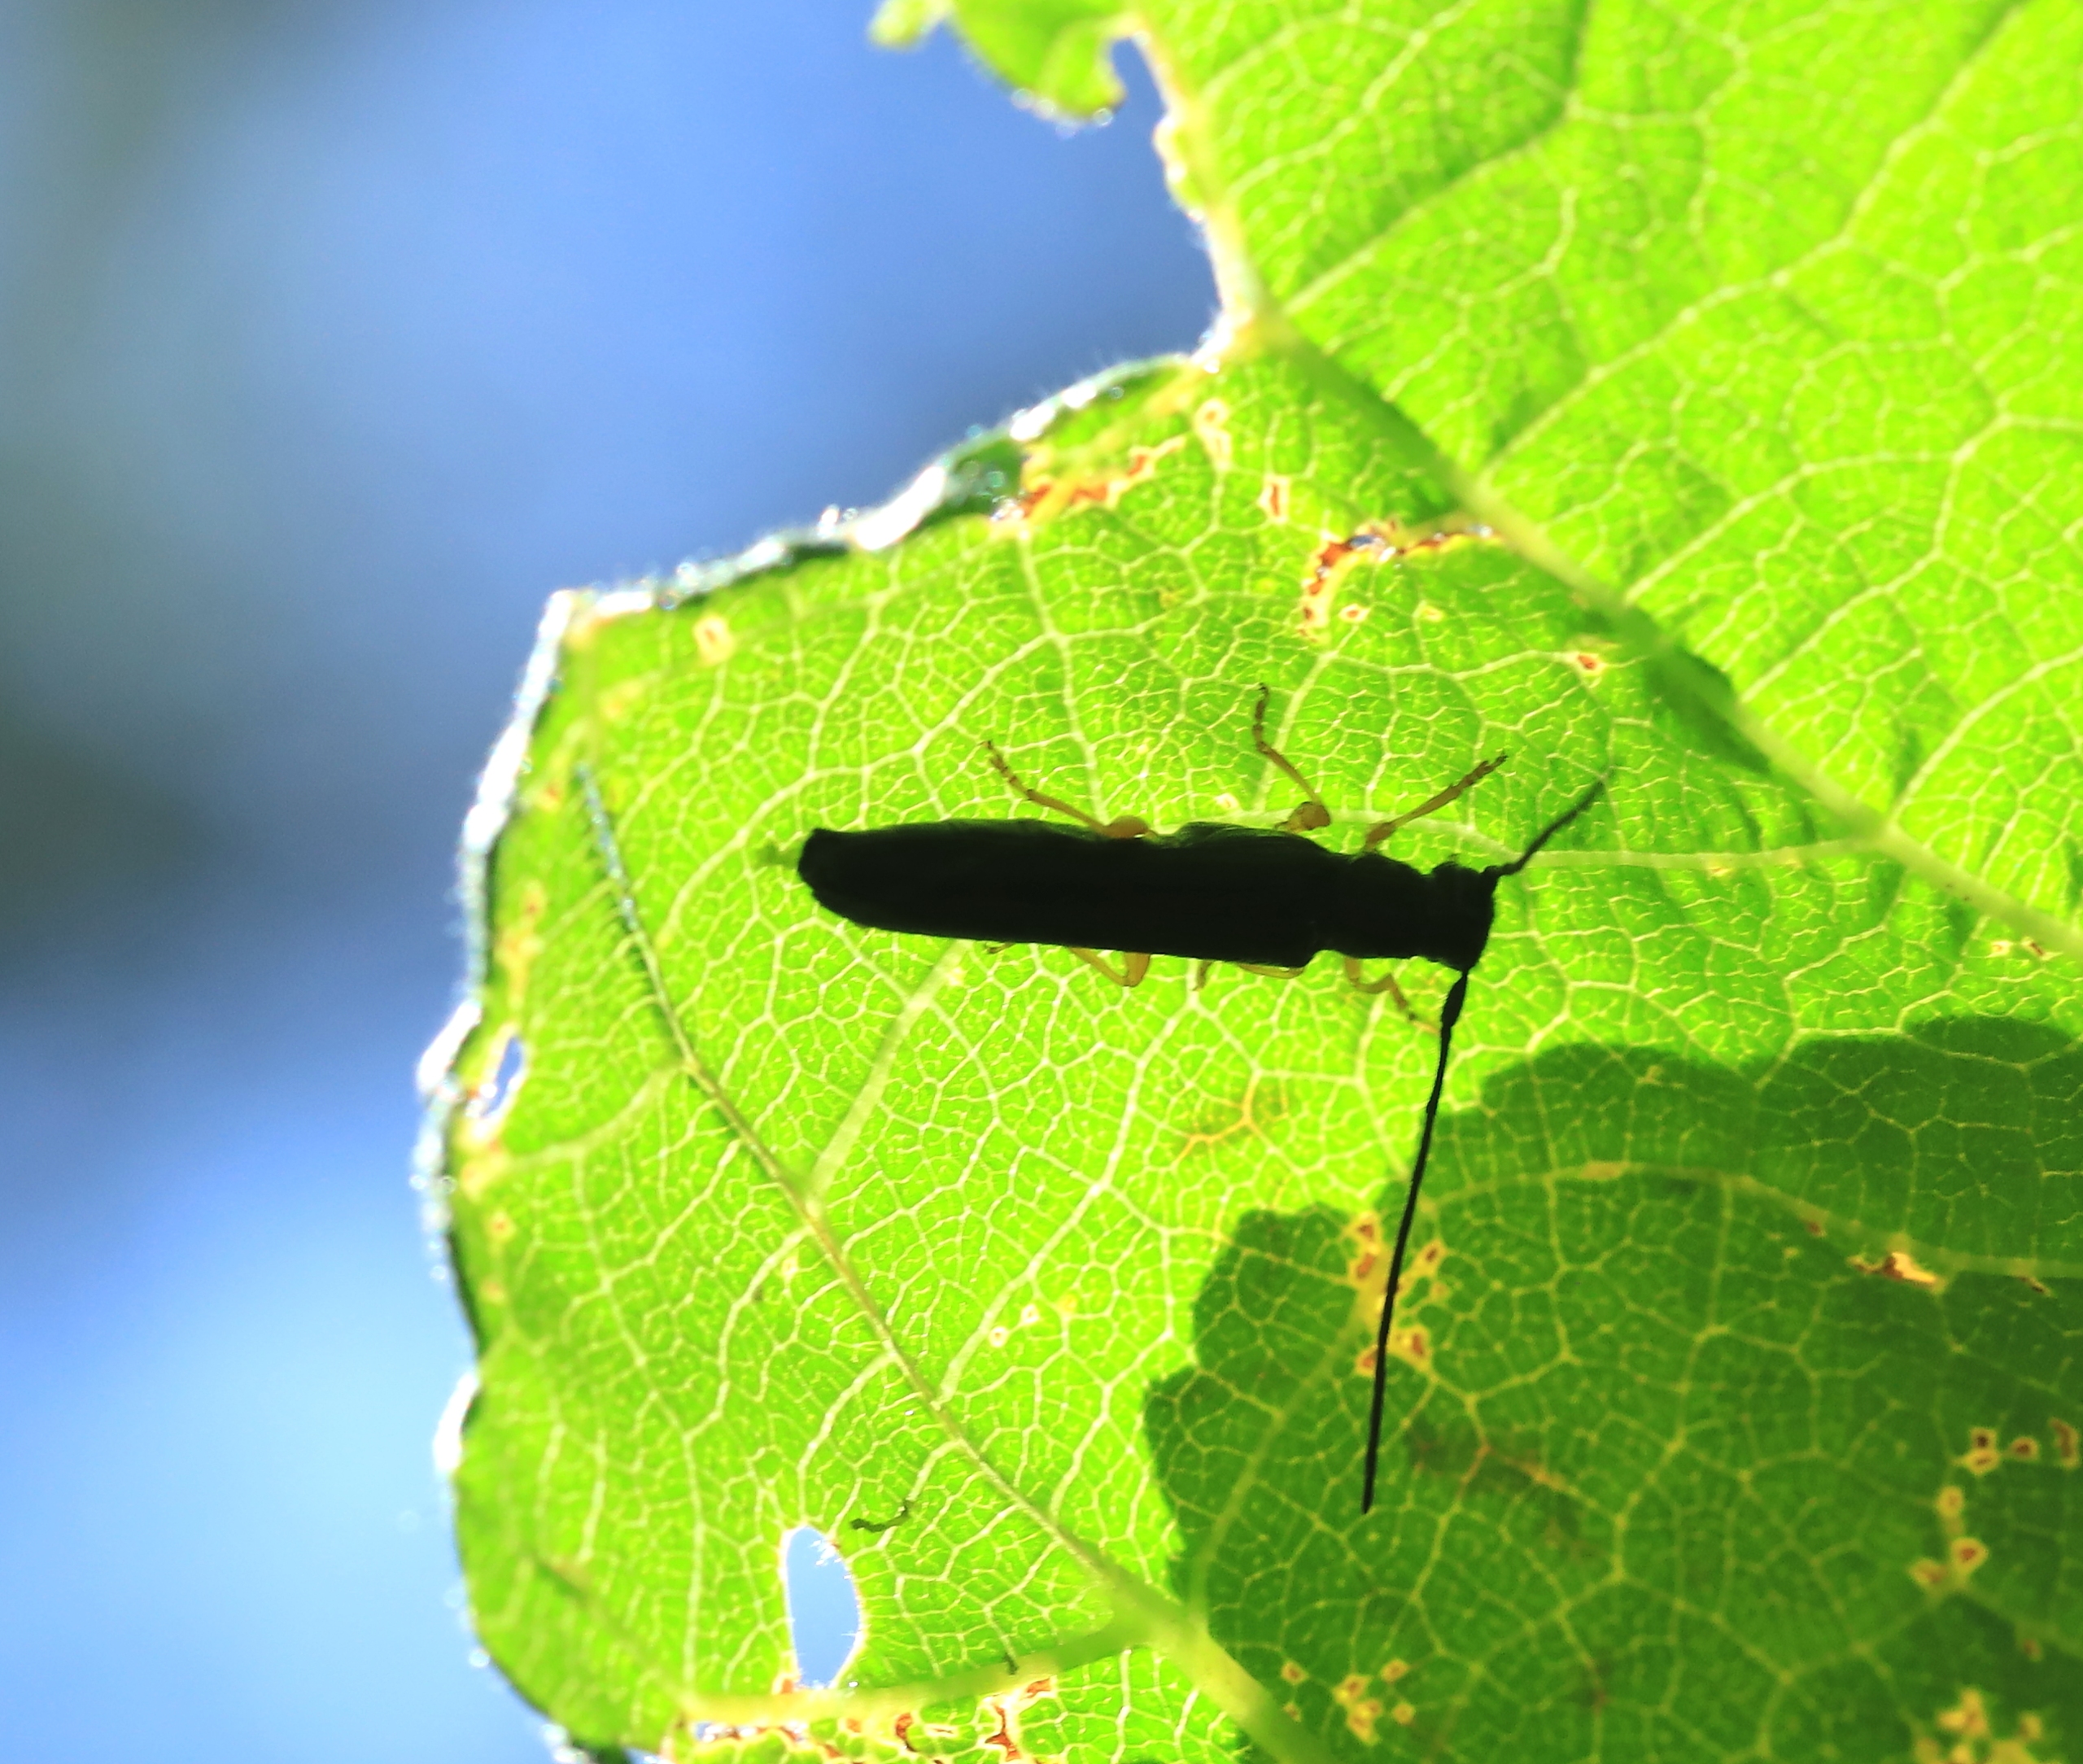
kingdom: Animalia
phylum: Arthropoda
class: Insecta
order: Coleoptera
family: Cerambycidae
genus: Oberea
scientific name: Oberea linearis
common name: Hasselbuk
